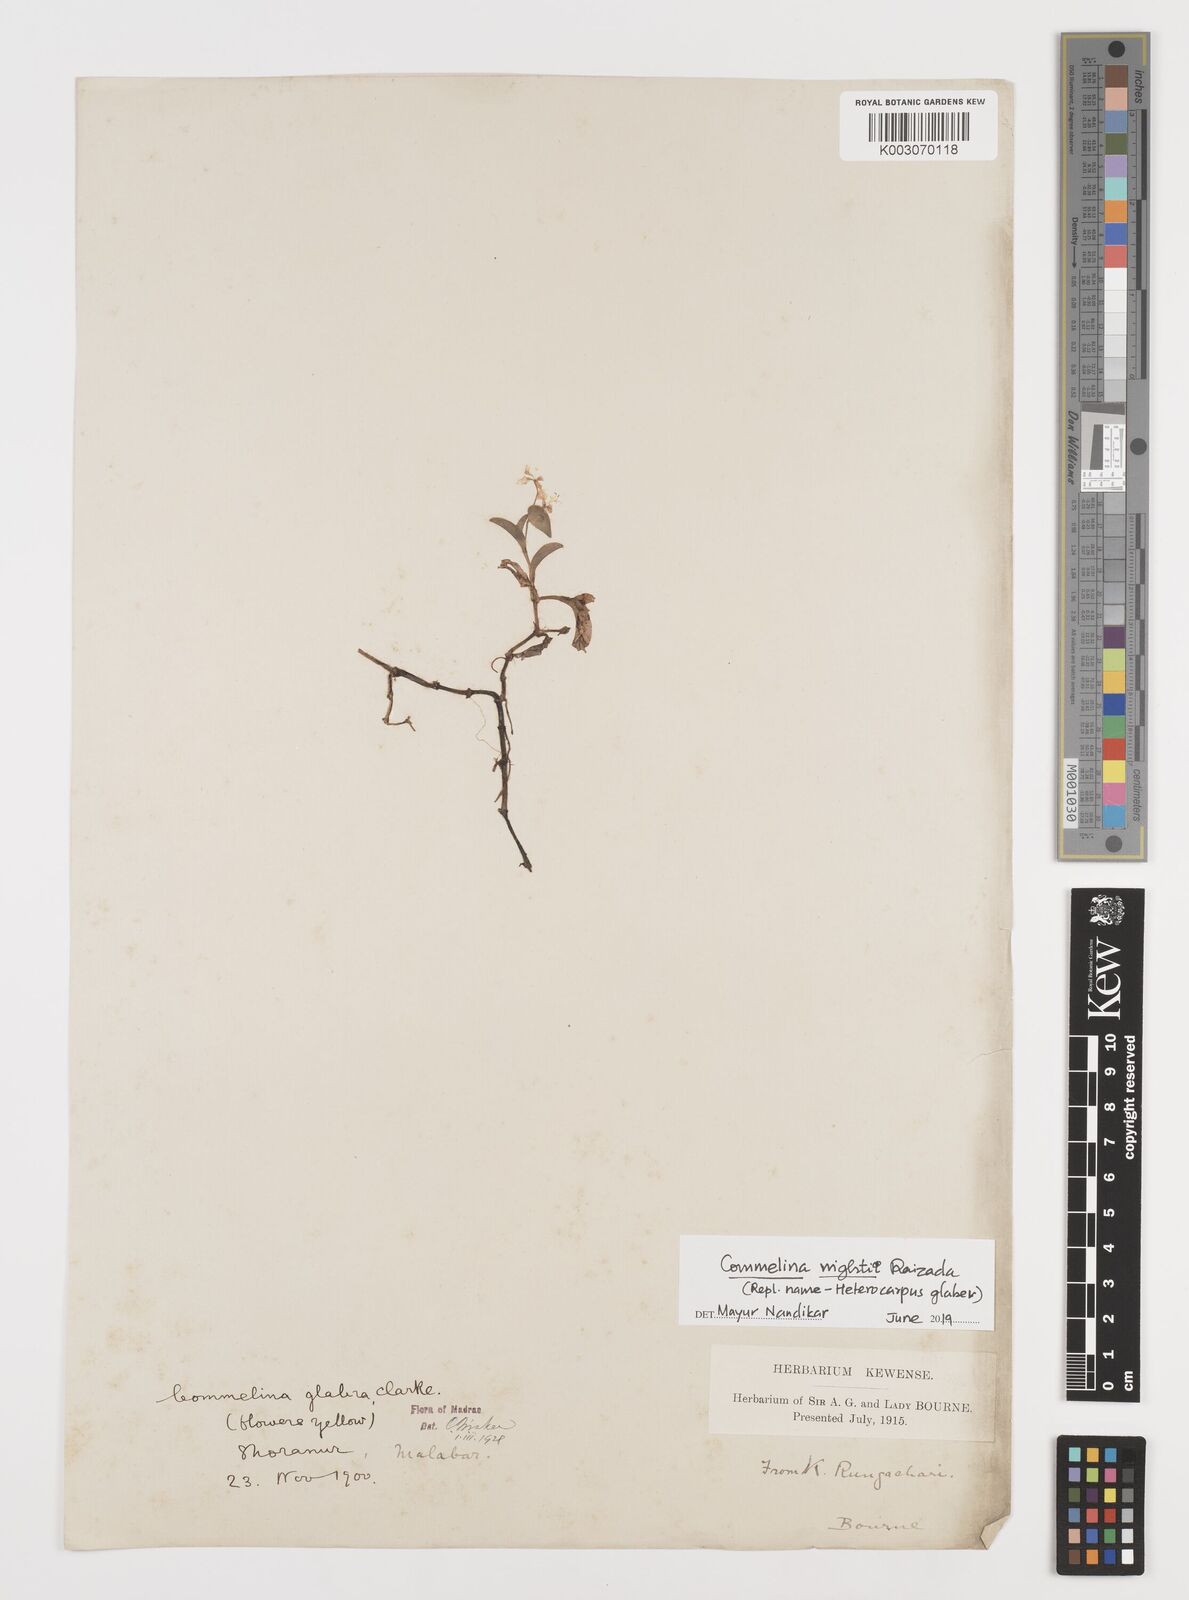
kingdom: Plantae
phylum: Tracheophyta
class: Liliopsida
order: Commelinales
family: Commelinaceae
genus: Commelina
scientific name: Commelina wightii
